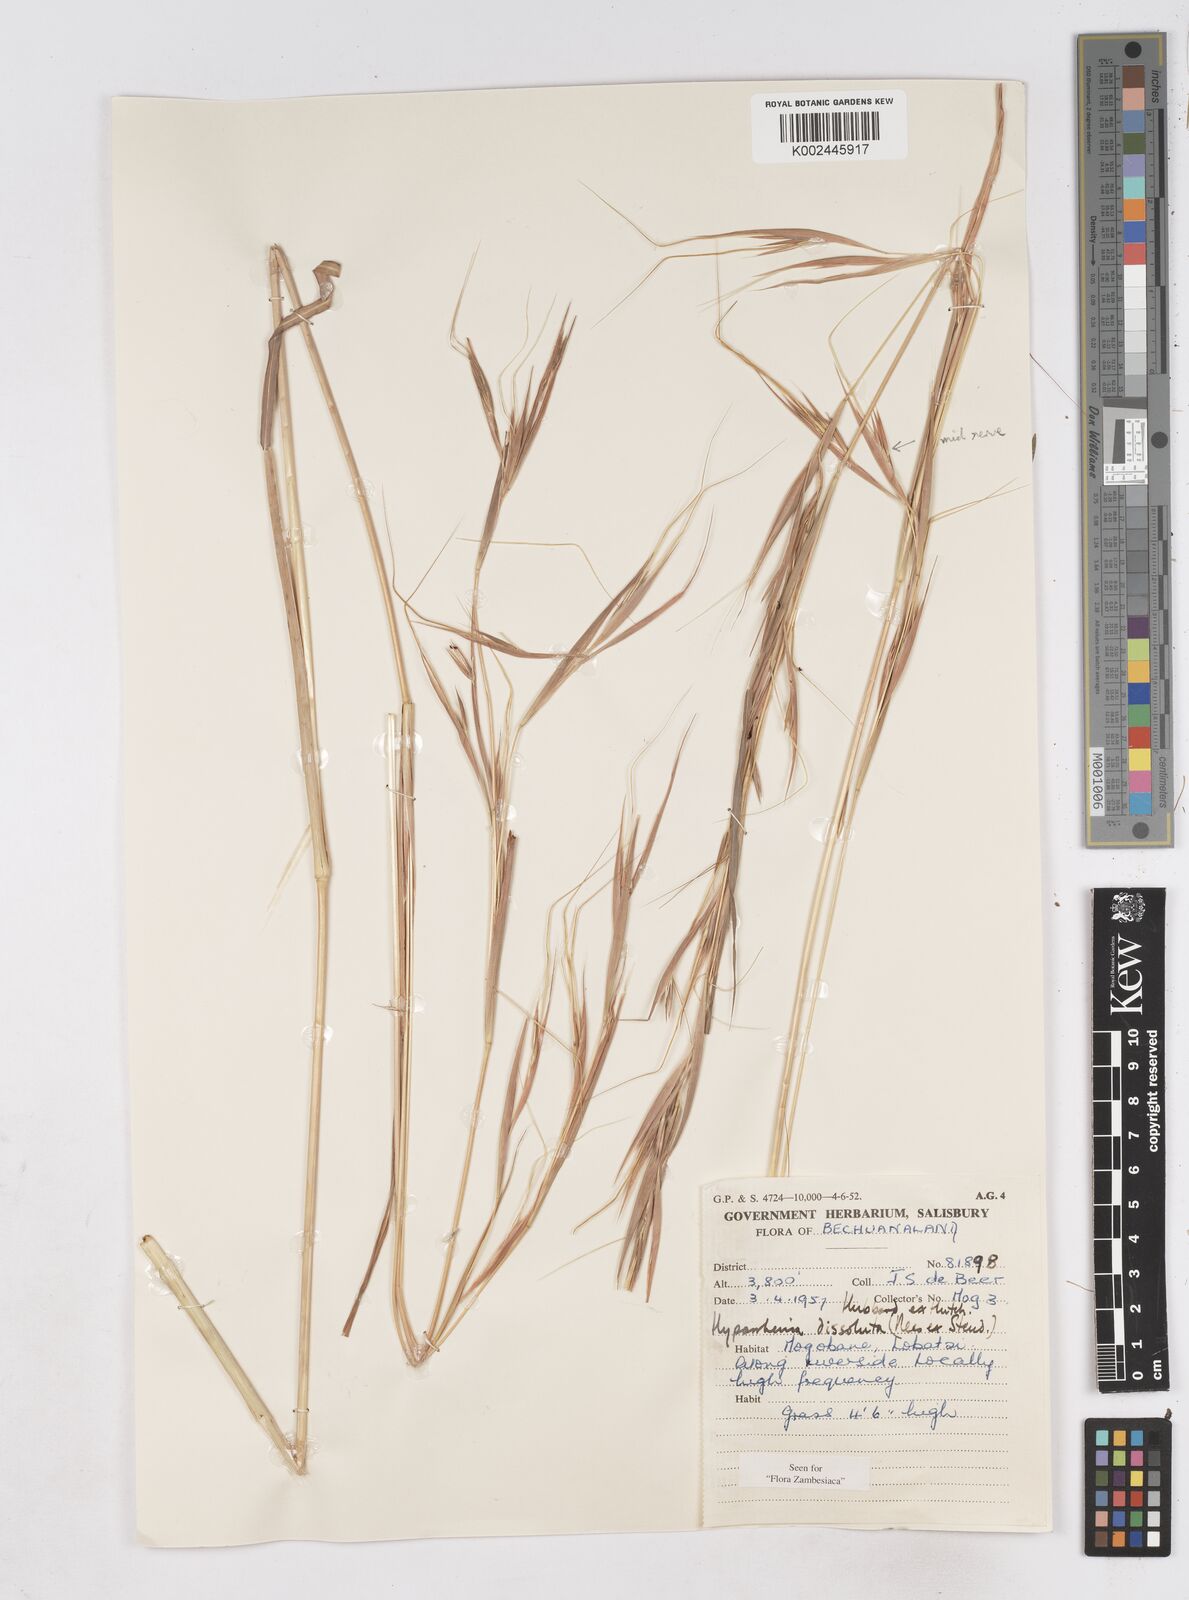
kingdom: Plantae
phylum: Tracheophyta
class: Liliopsida
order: Poales
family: Poaceae
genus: Hyperthelia
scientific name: Hyperthelia dissoluta
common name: Yellow thatching grass
